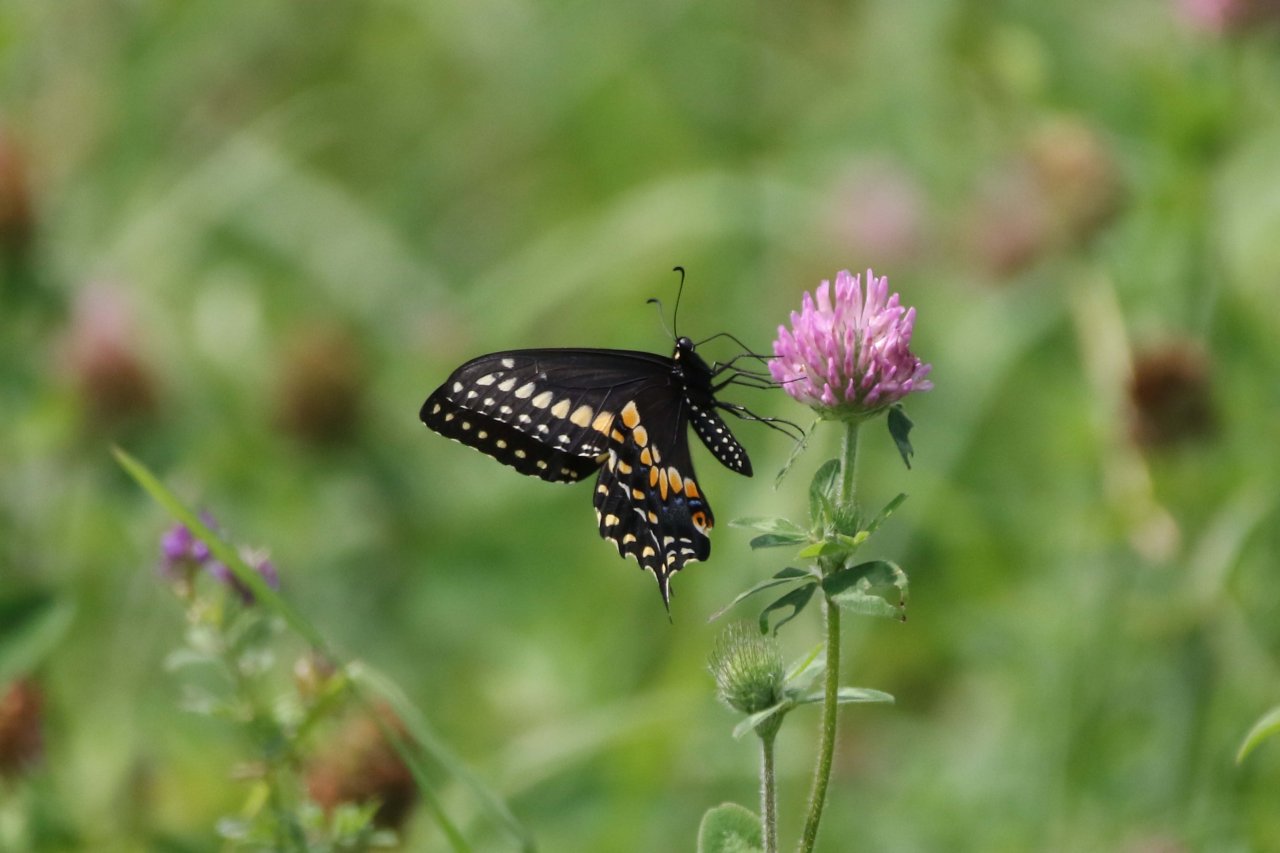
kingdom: Animalia
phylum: Arthropoda
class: Insecta
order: Lepidoptera
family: Papilionidae
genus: Papilio
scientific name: Papilio polyxenes
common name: Black Swallowtail
